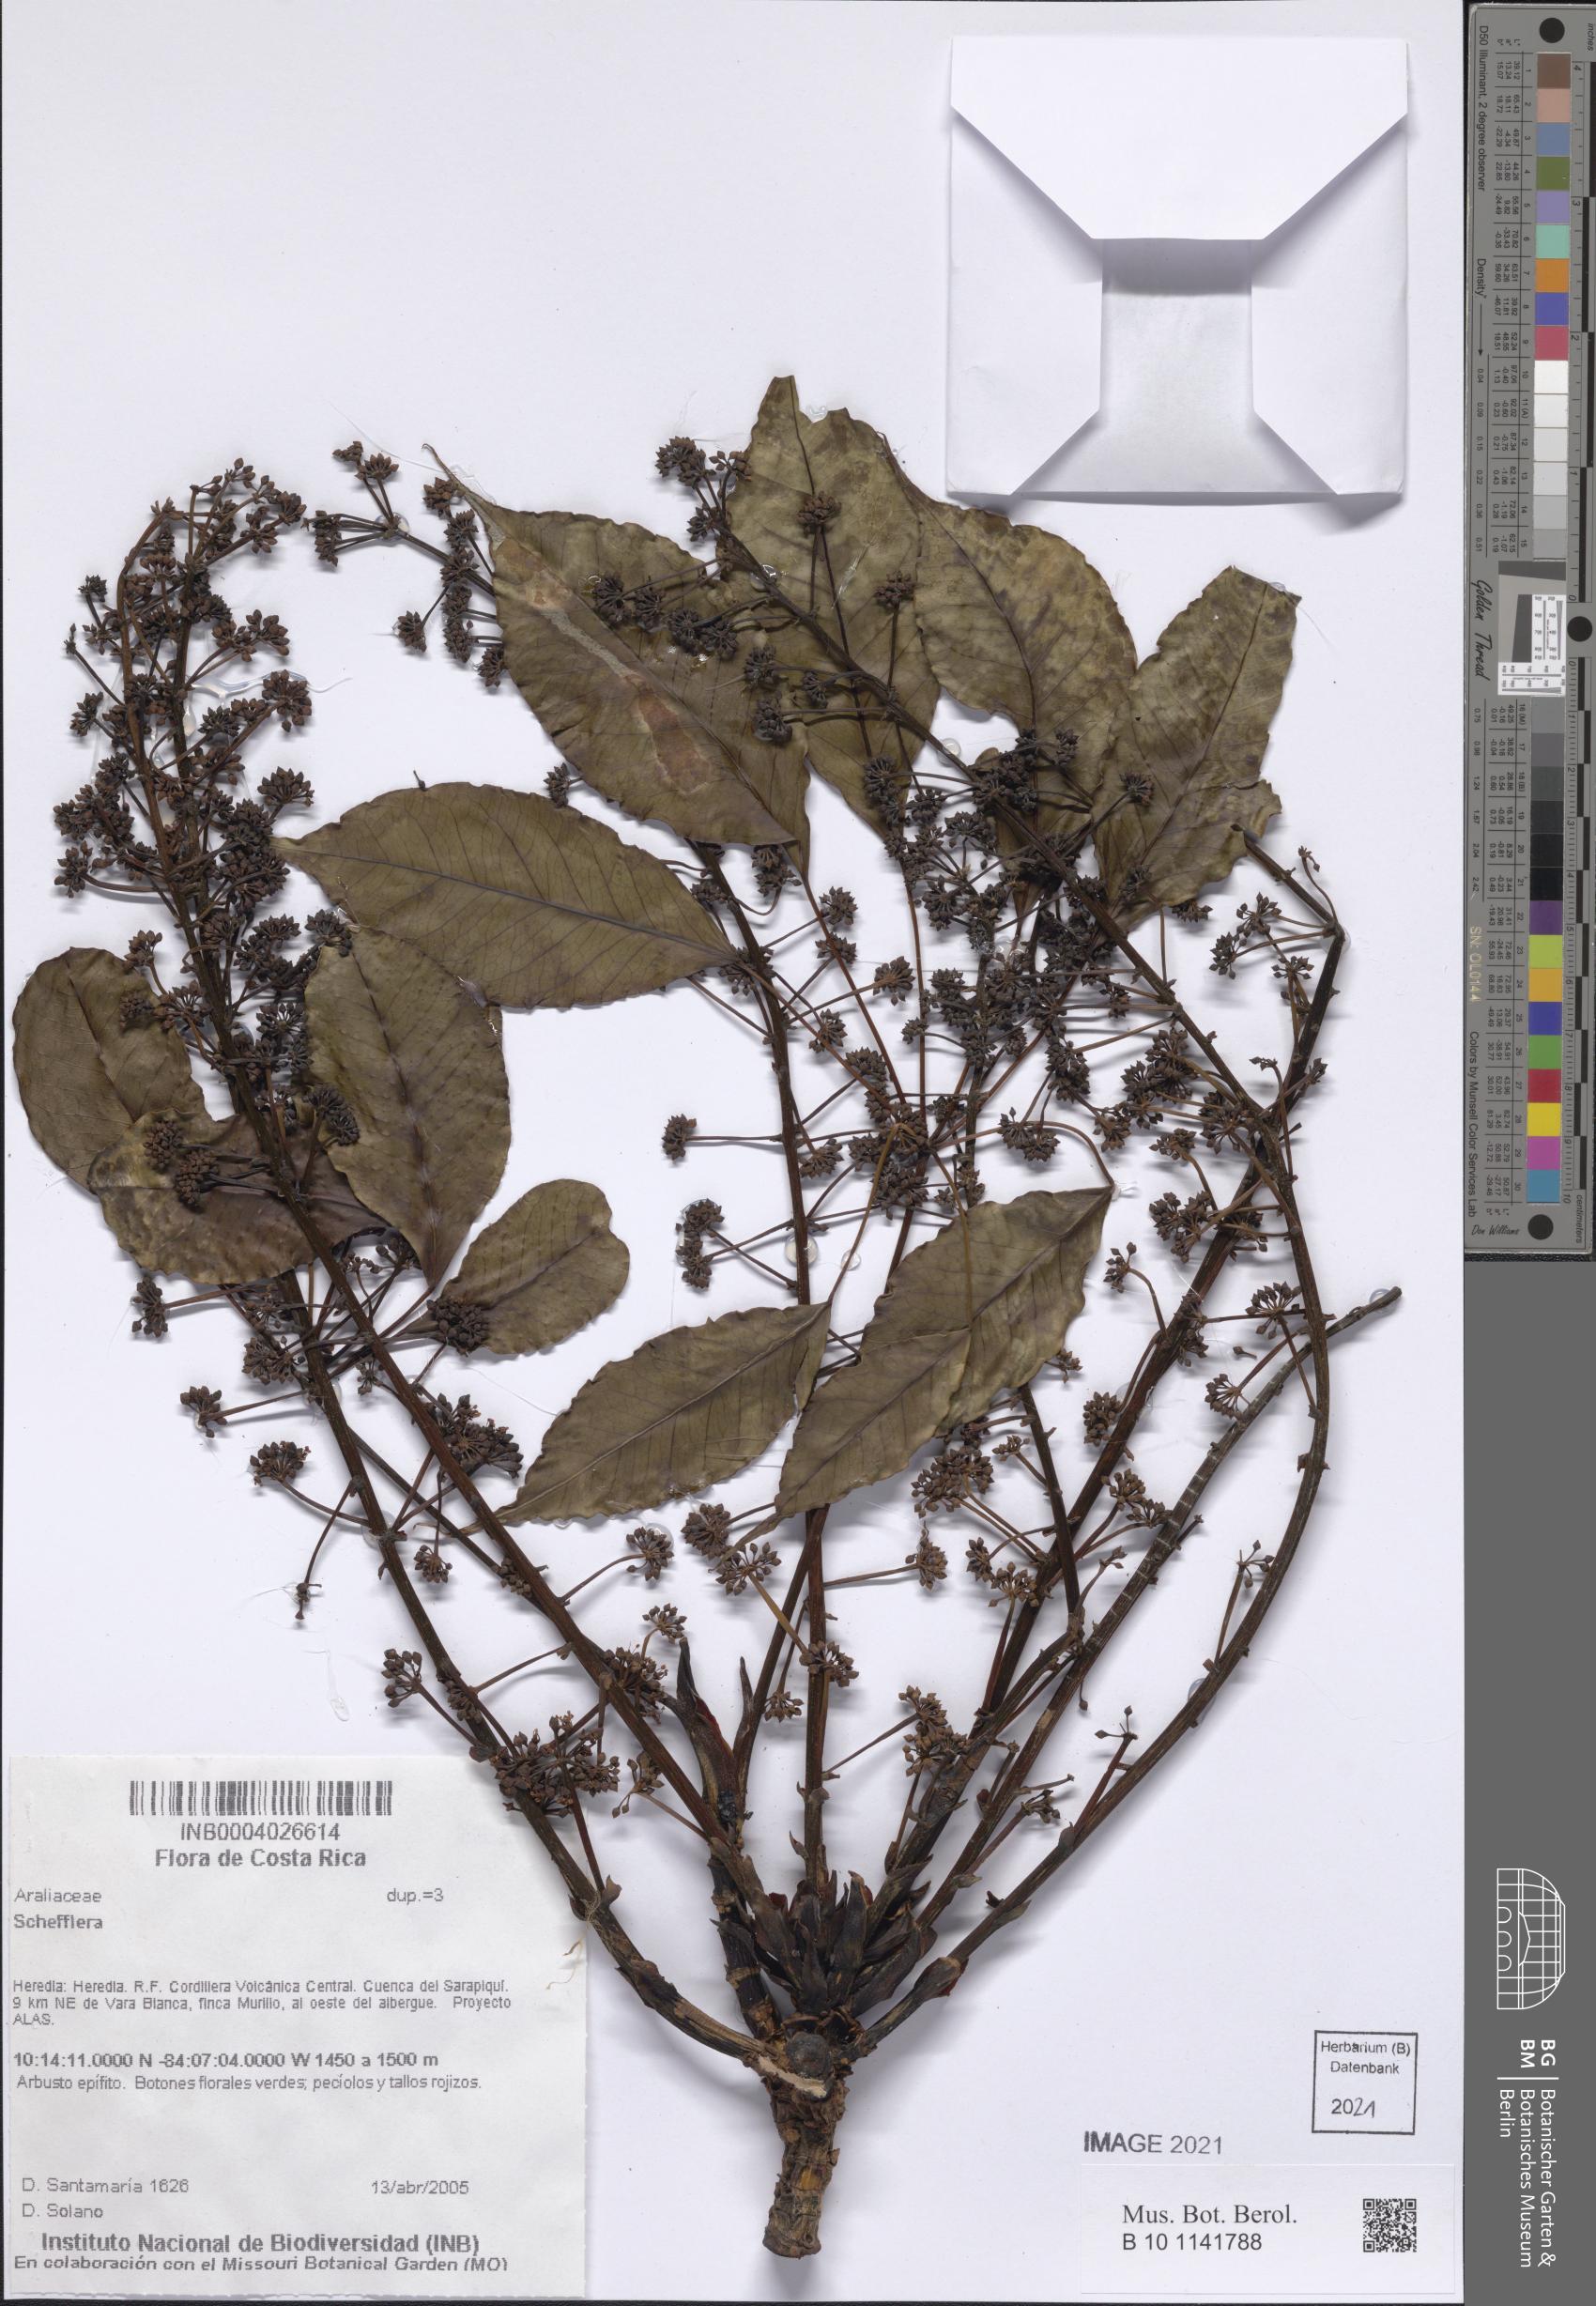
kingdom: Plantae
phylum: Tracheophyta
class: Magnoliopsida
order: Apiales
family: Araliaceae
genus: Schefflera
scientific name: Schefflera
